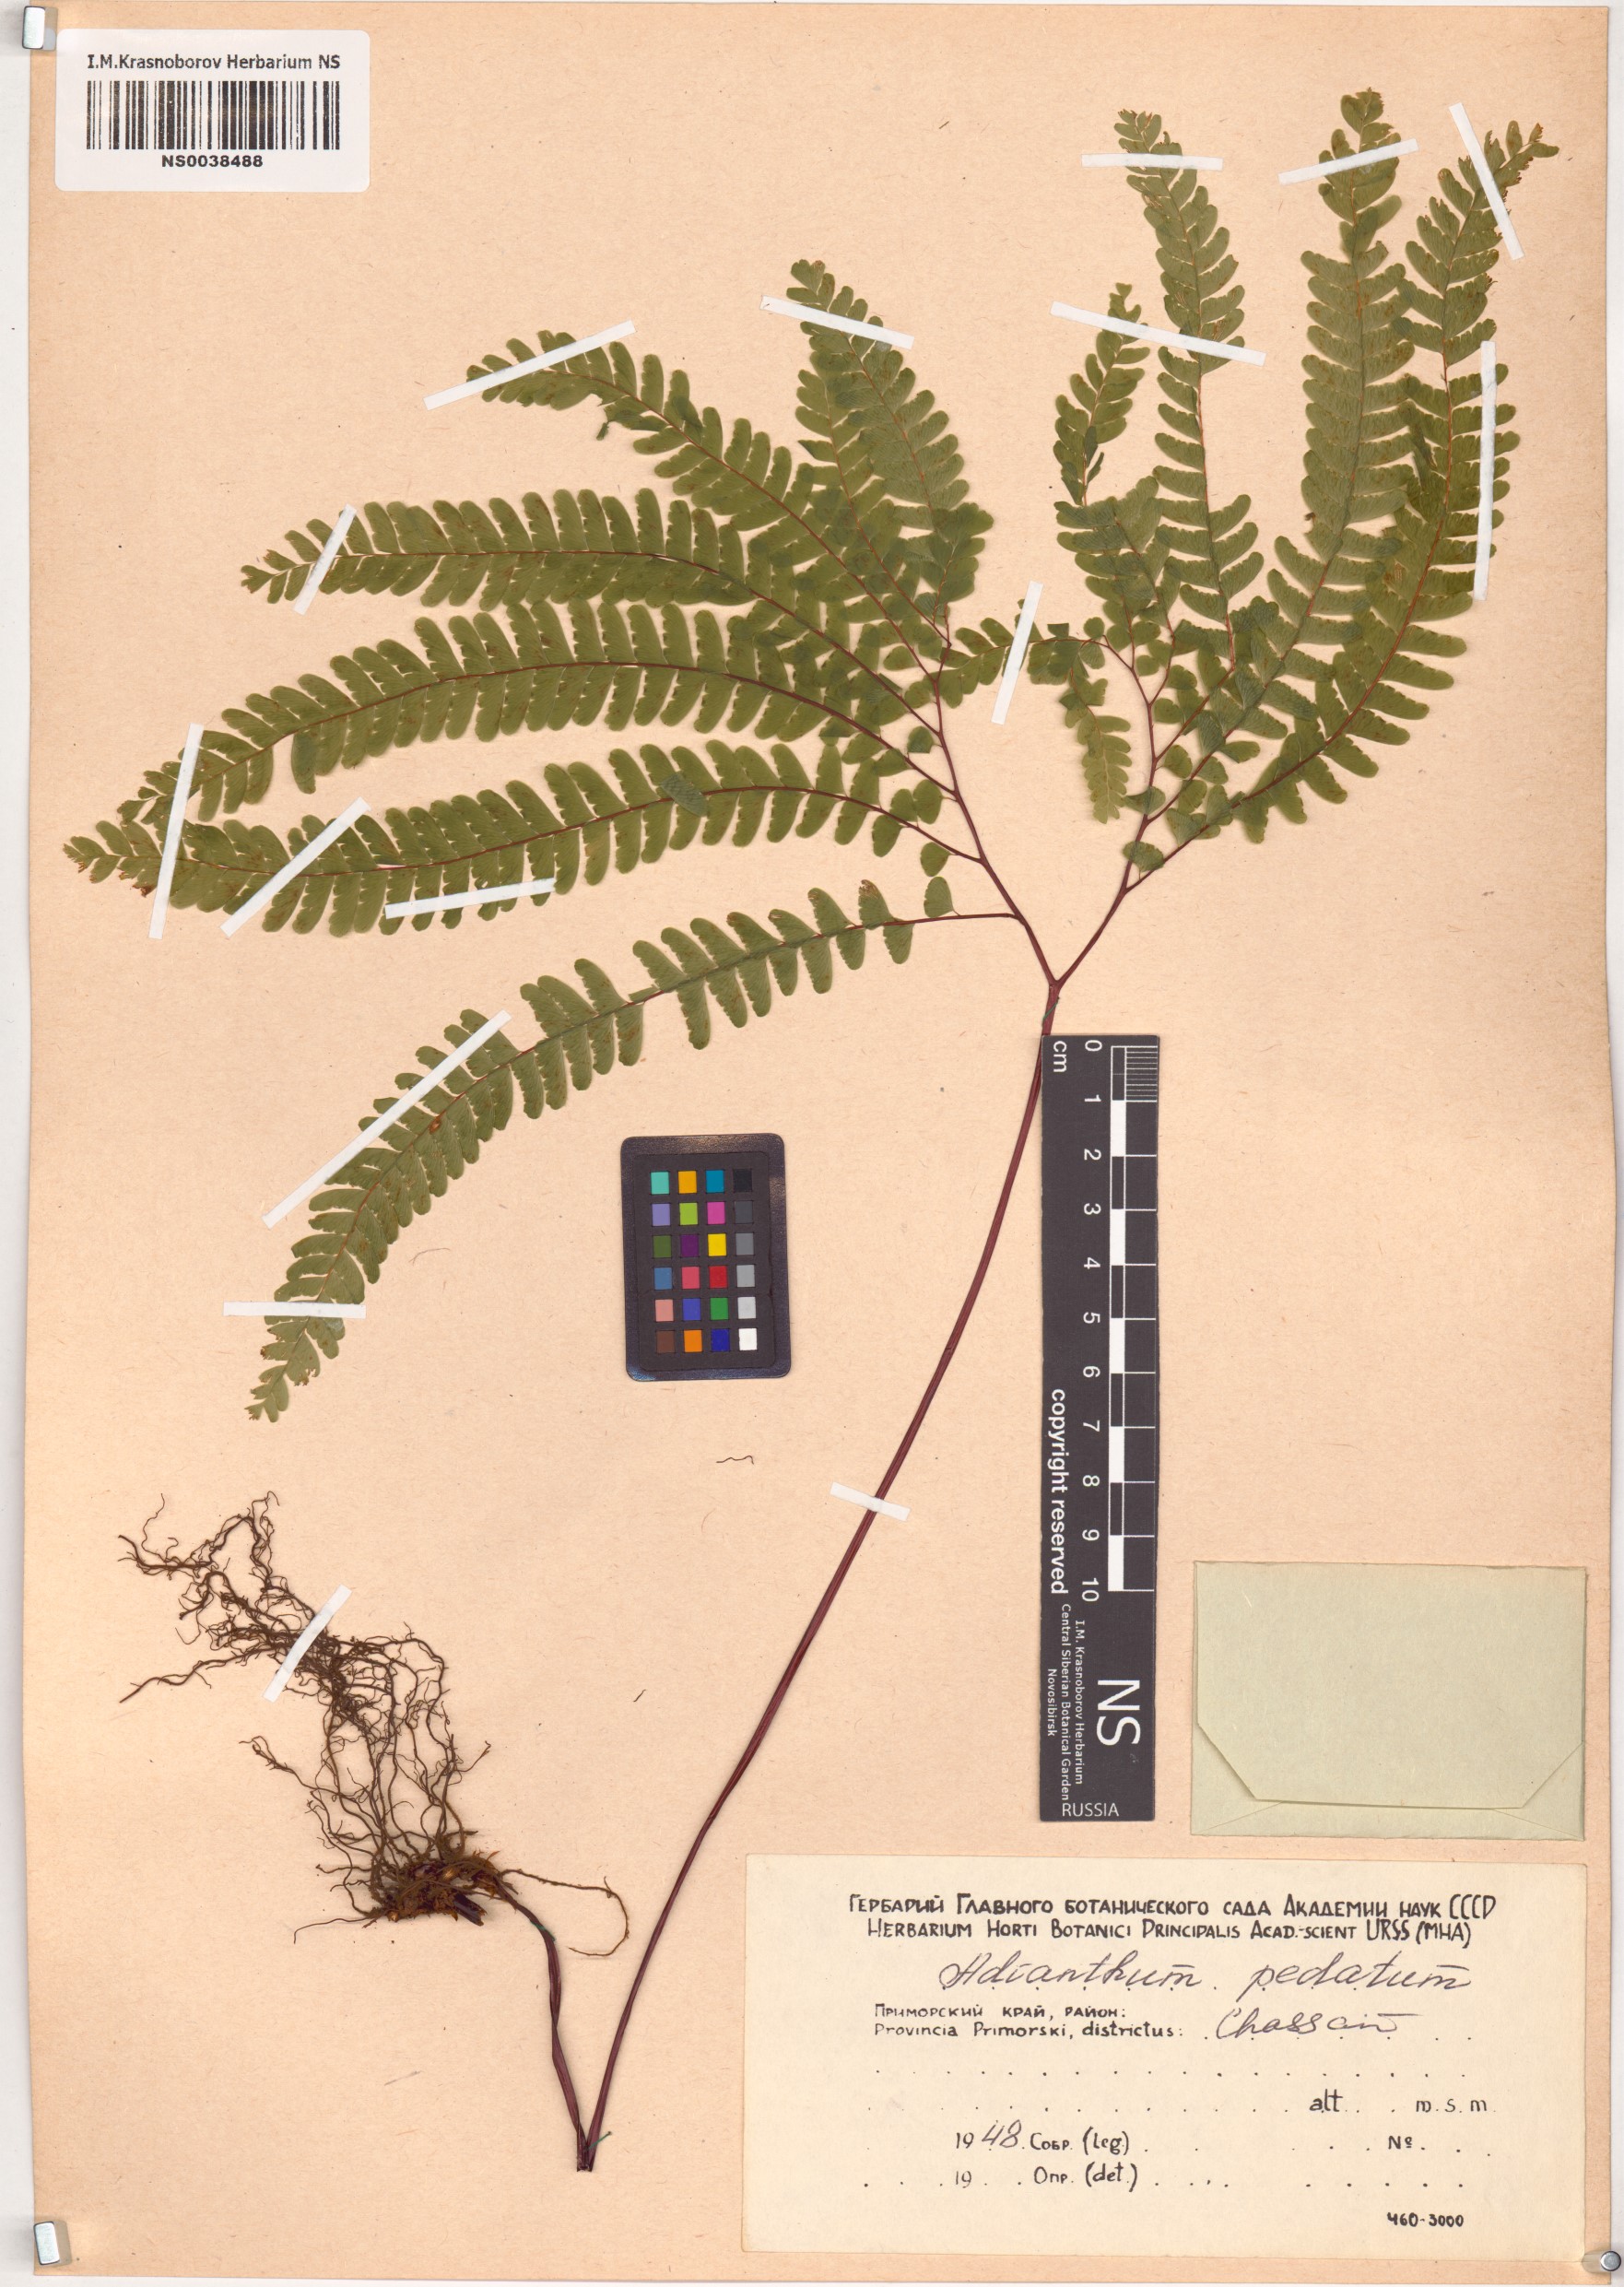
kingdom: Plantae
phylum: Tracheophyta
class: Polypodiopsida
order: Polypodiales
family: Pteridaceae
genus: Adiantum
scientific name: Adiantum pedatum
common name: Five-finger fern
